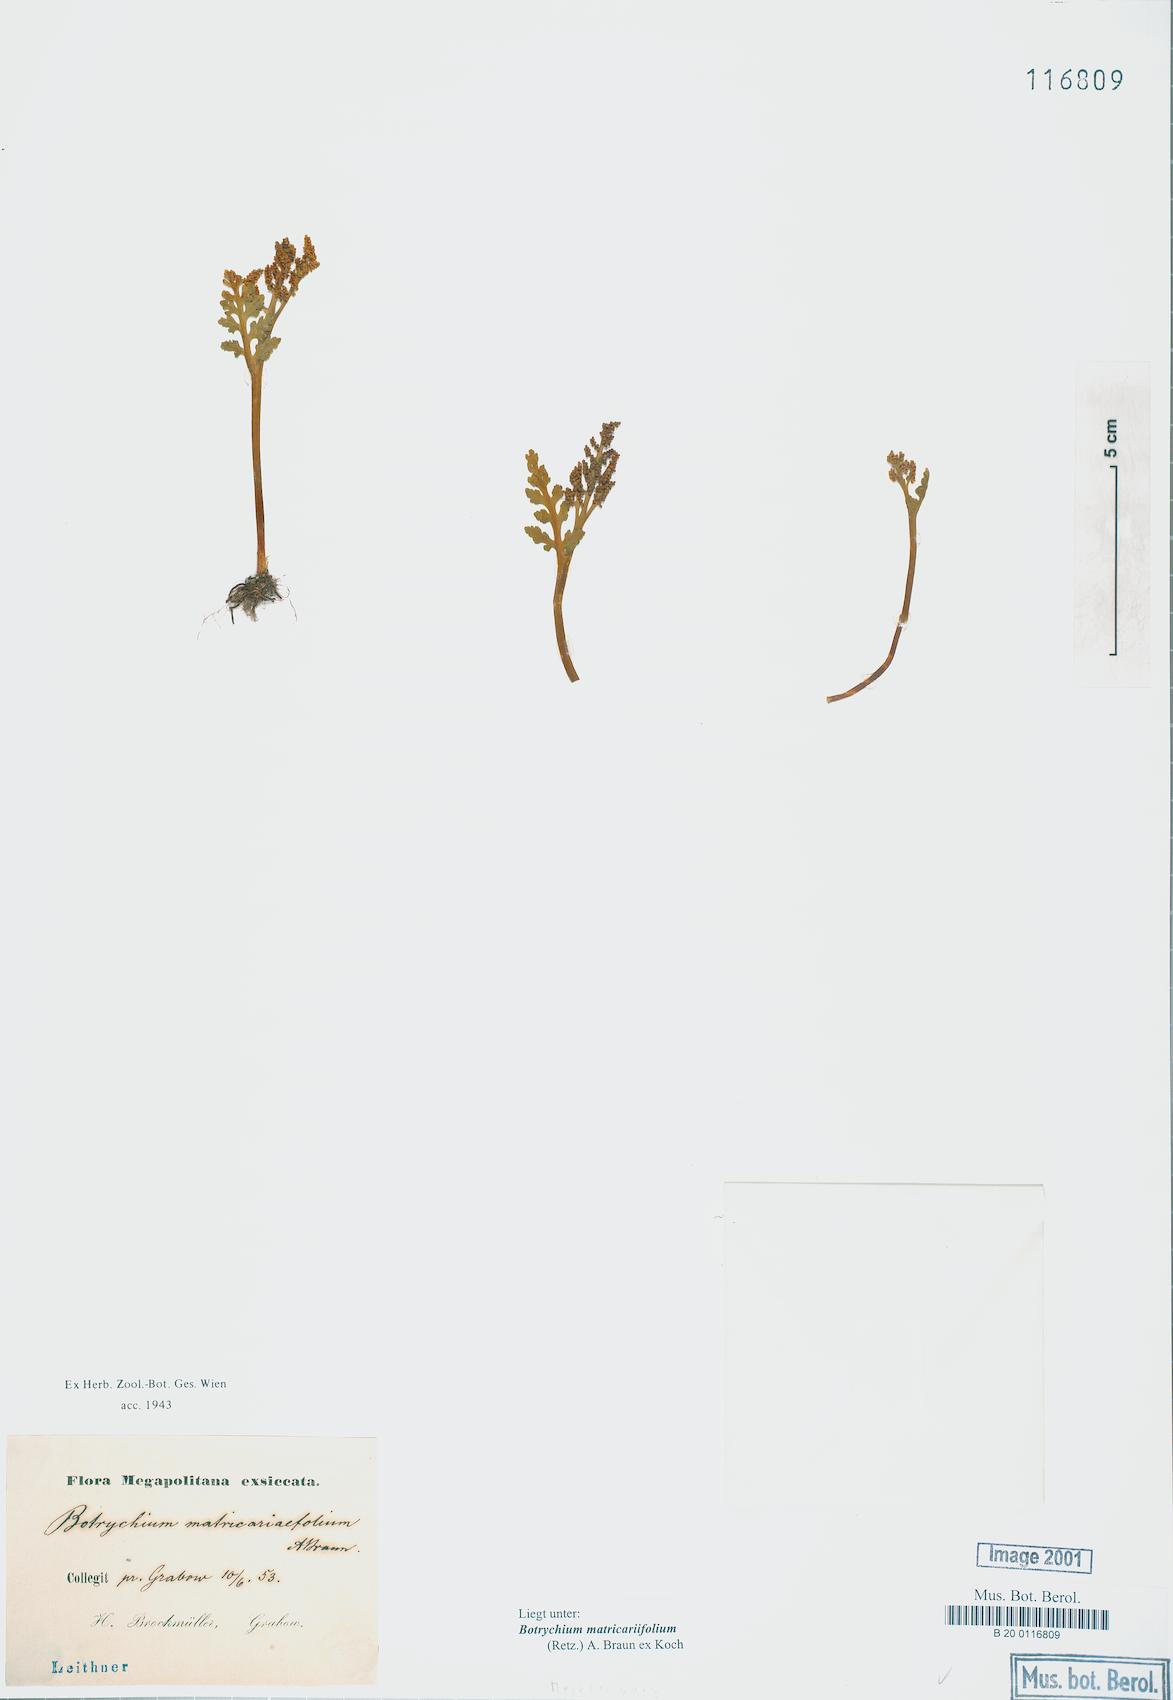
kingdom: Plantae
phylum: Tracheophyta
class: Polypodiopsida
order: Ophioglossales
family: Ophioglossaceae
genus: Botrychium
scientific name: Botrychium matricariifolium
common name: Branched moonwort
